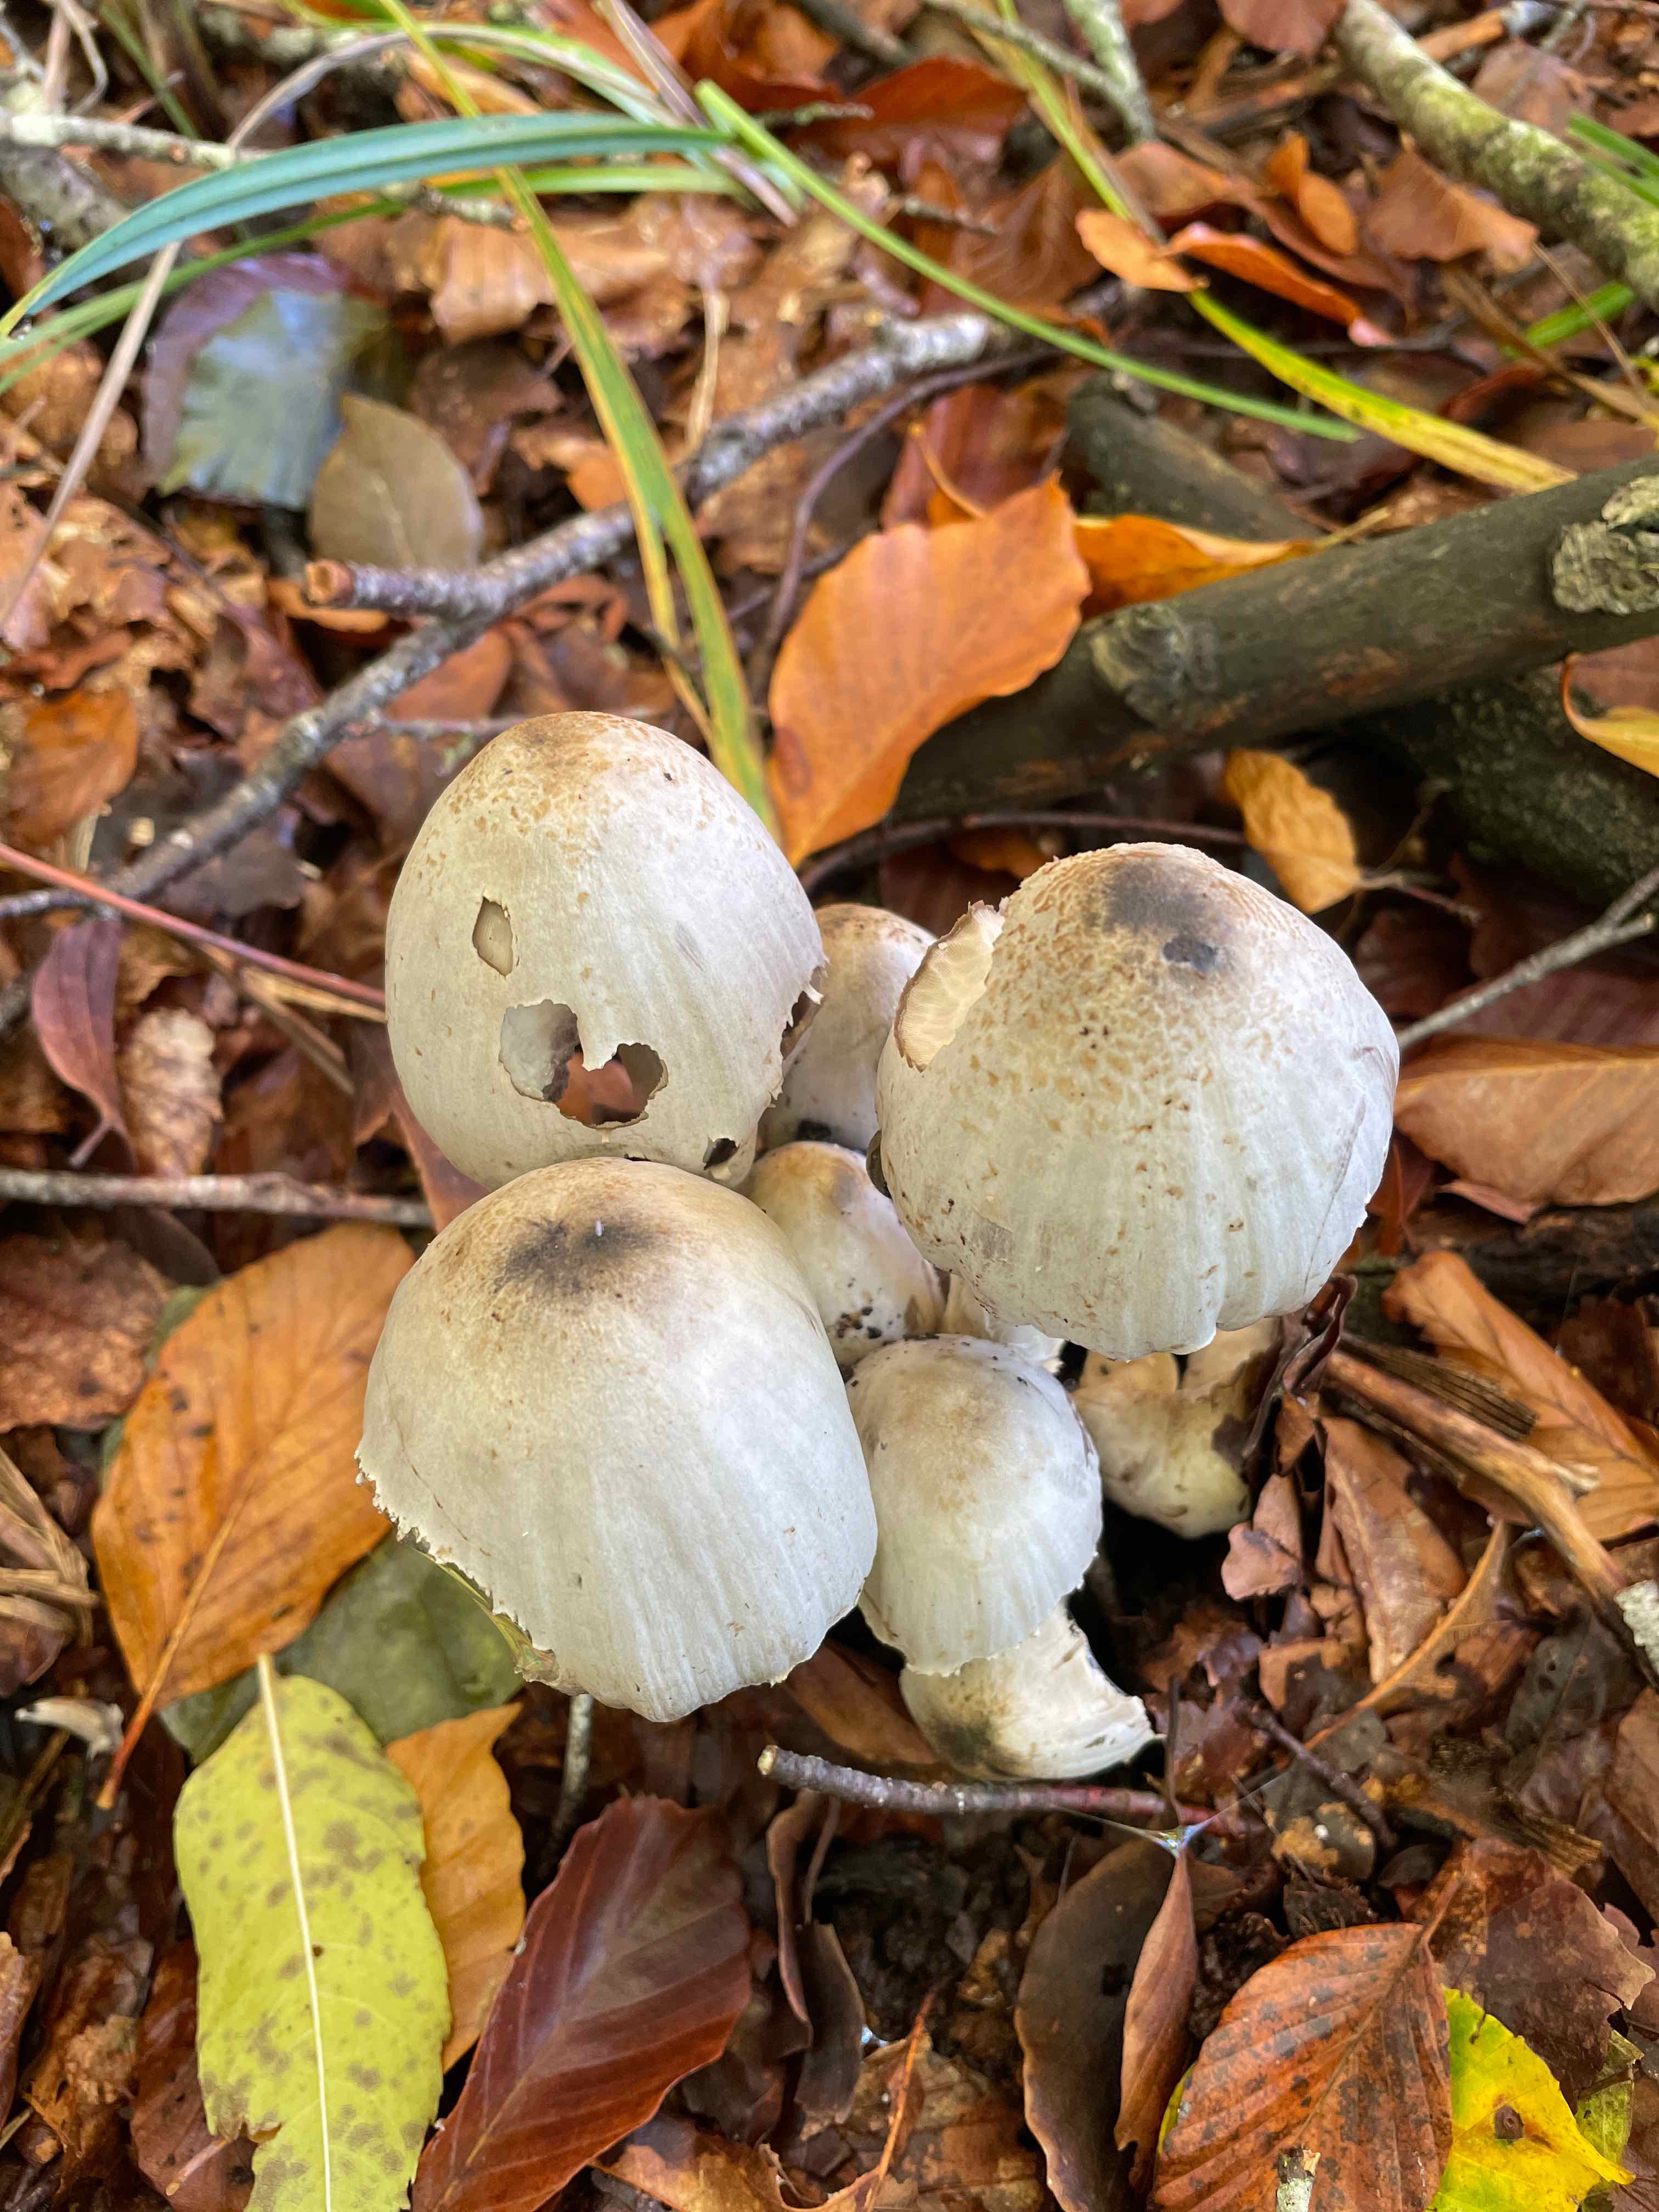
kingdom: Fungi
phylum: Basidiomycota
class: Agaricomycetes
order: Agaricales
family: Psathyrellaceae
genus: Coprinopsis
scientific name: Coprinopsis romagnesiana
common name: brunskællet blækhat
